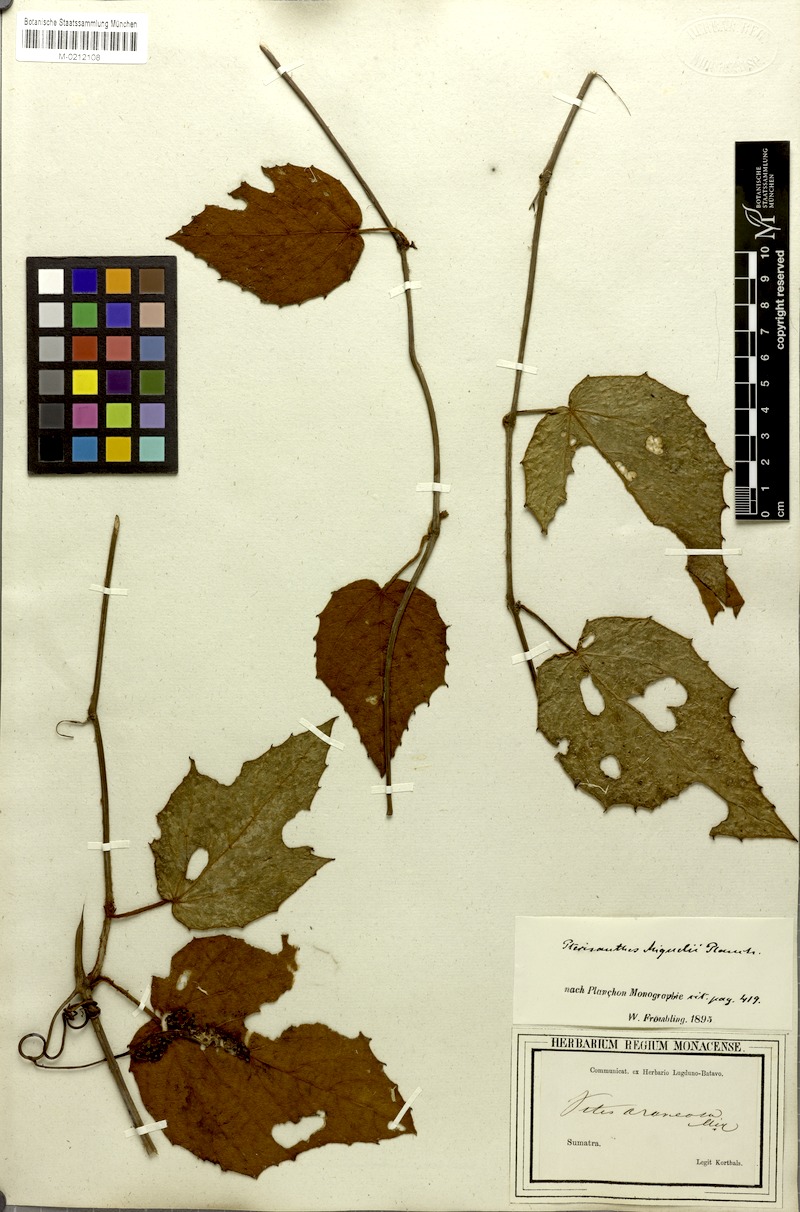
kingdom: Plantae
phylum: Tracheophyta
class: Magnoliopsida
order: Vitales
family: Vitaceae
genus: Pterisanthes
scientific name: Pterisanthes miquelii
